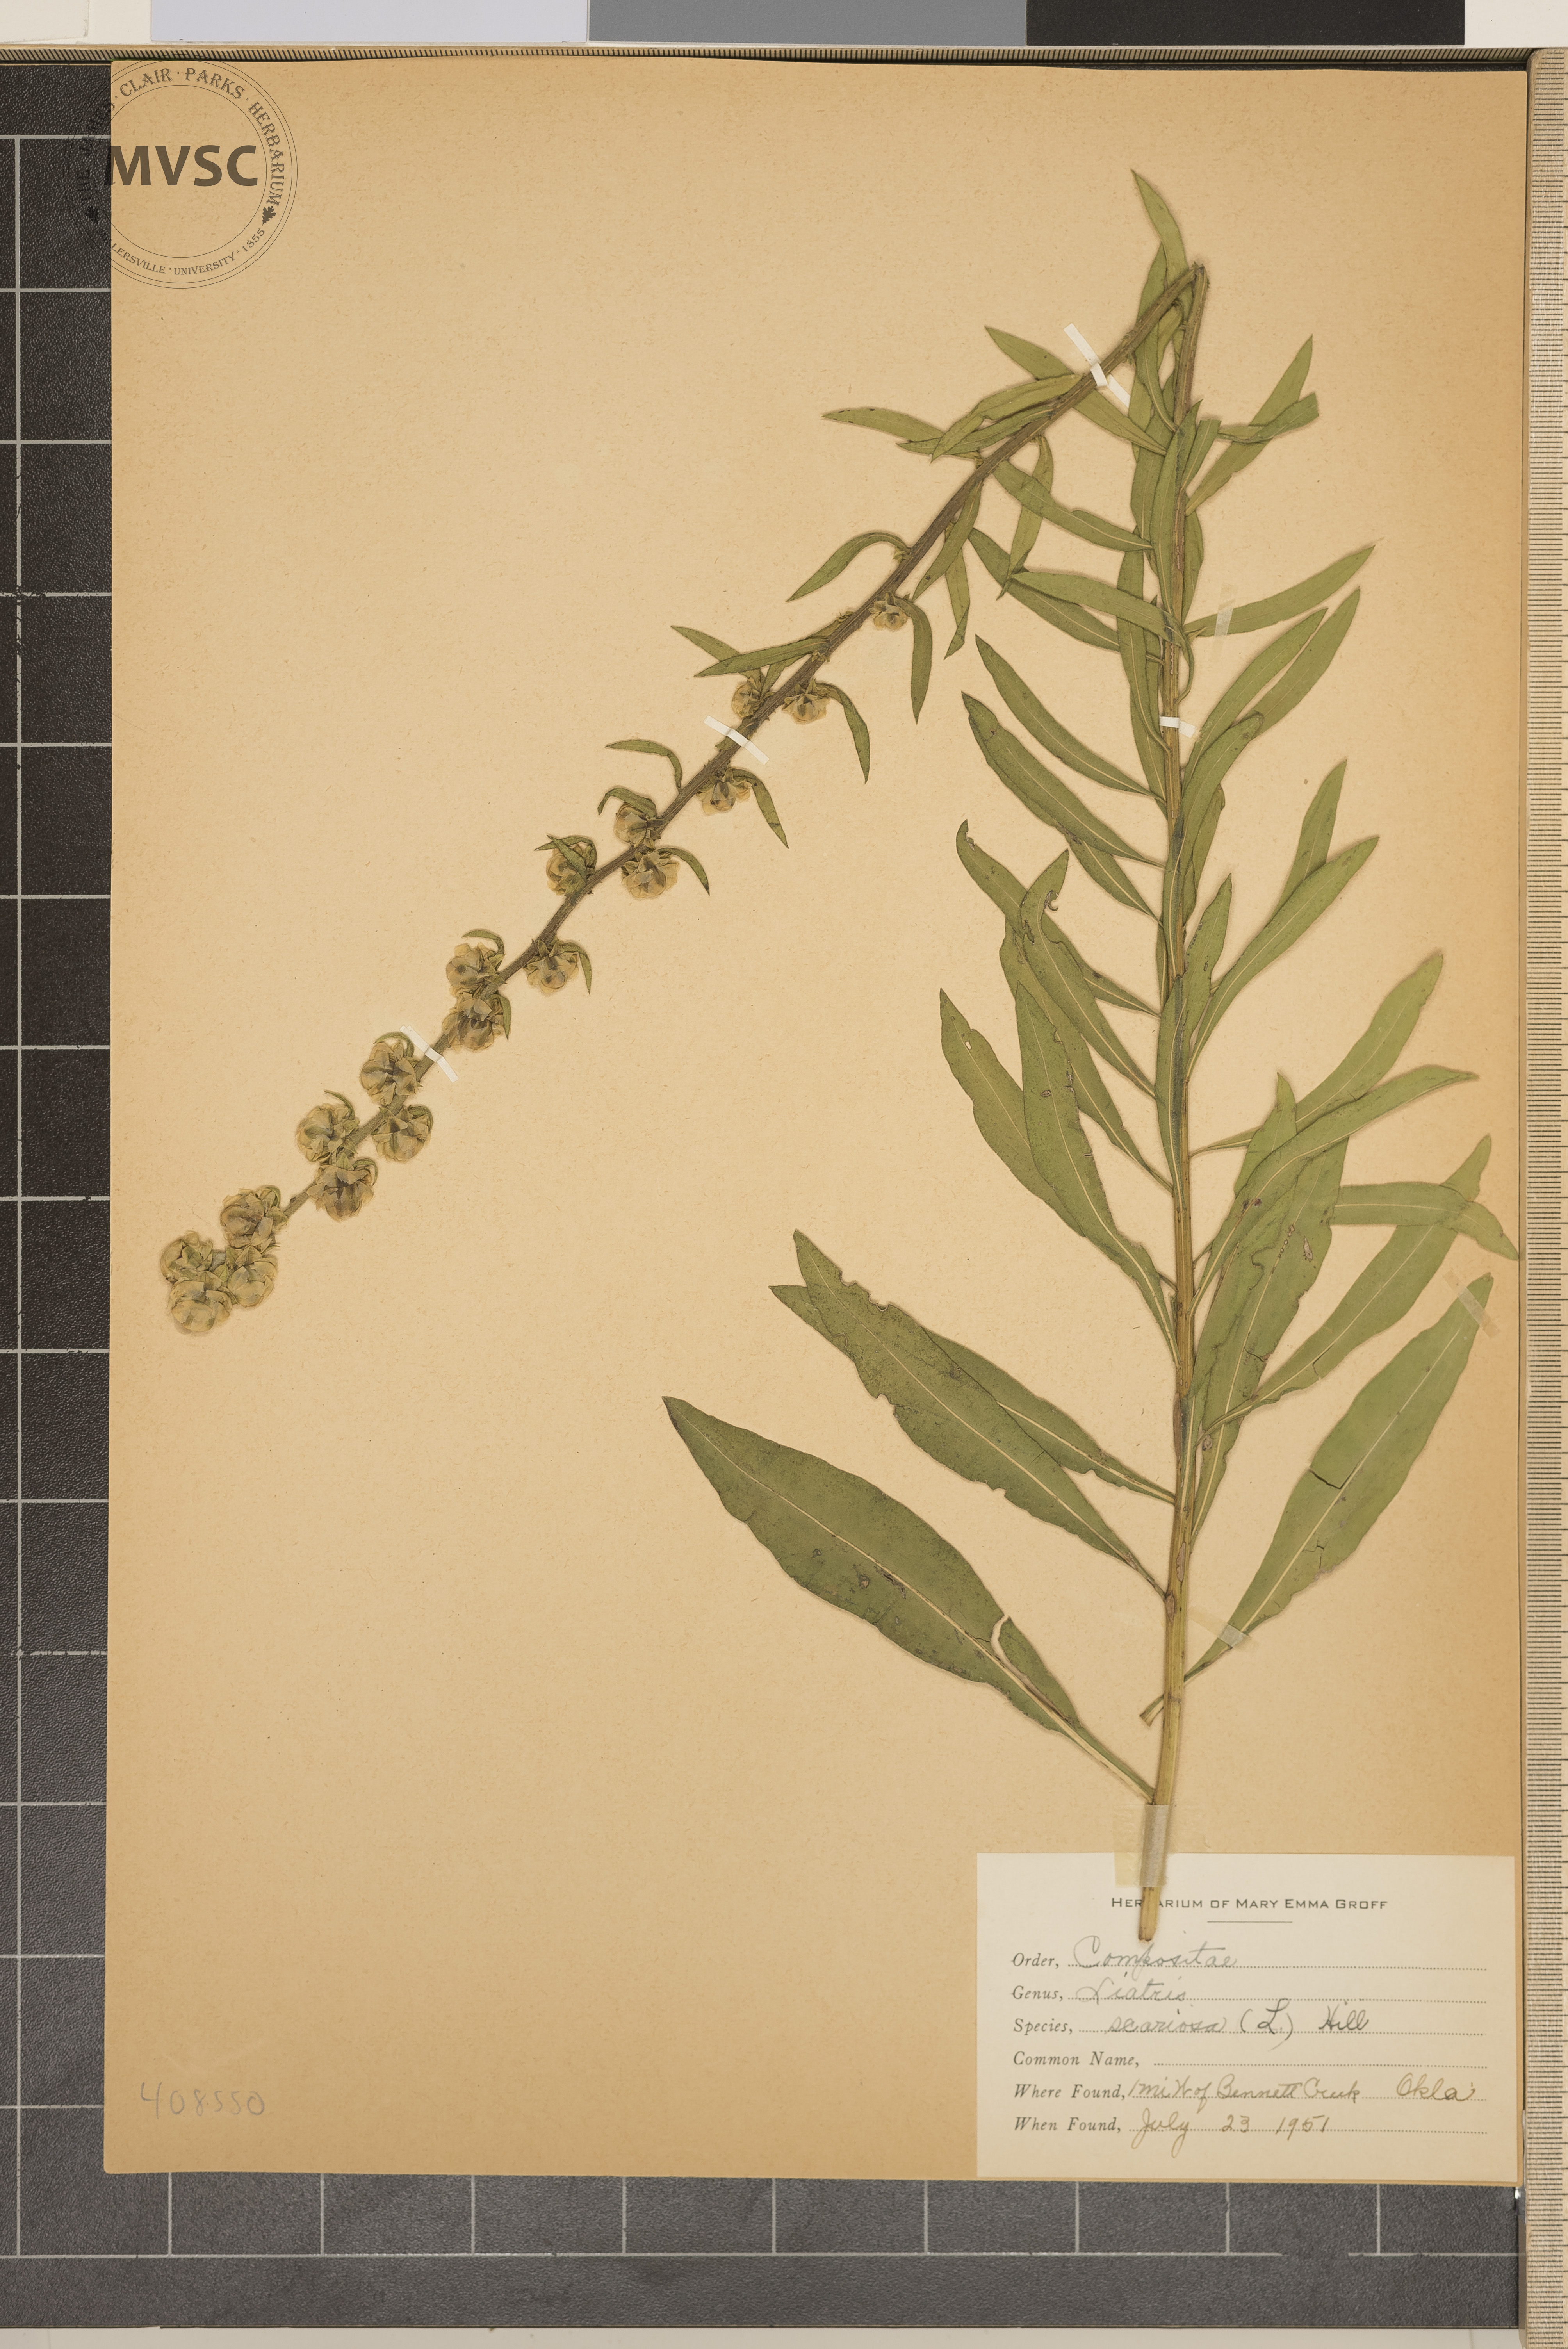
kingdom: Plantae
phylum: Tracheophyta
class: Magnoliopsida
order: Asterales
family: Asteraceae
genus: Liatris
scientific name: Liatris scariosa
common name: Northern gayfeather
